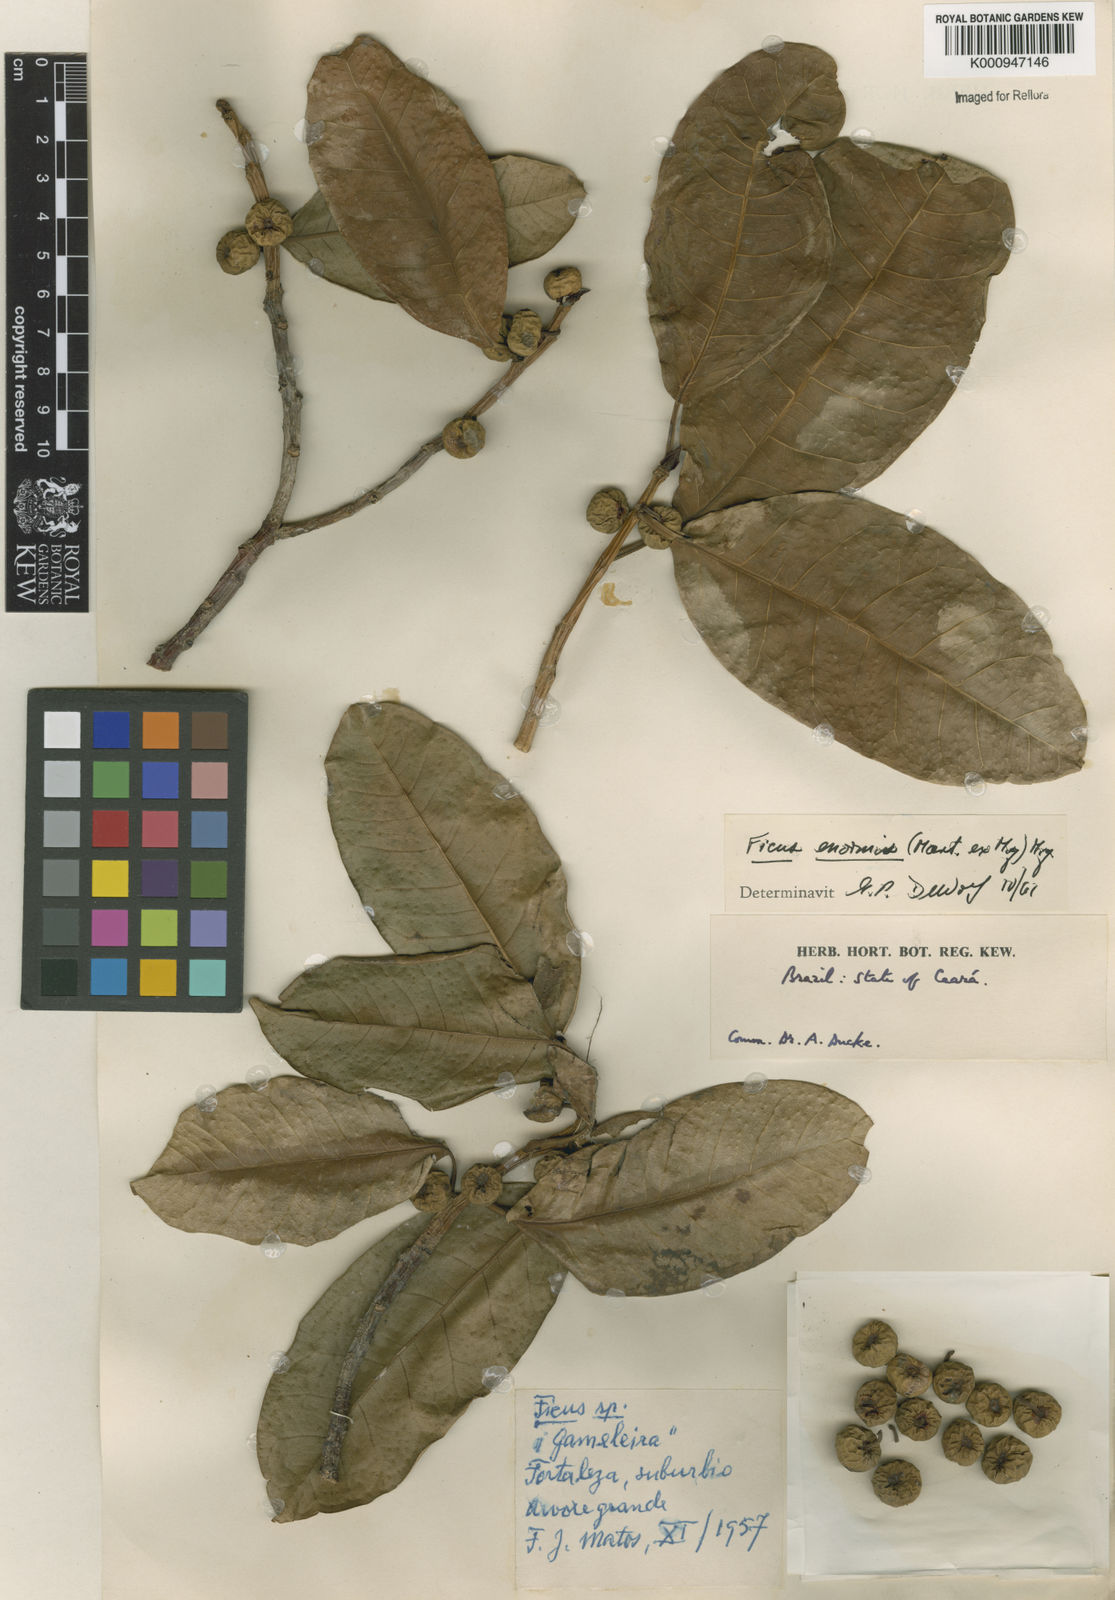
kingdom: Plantae
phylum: Tracheophyta
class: Magnoliopsida
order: Rosales
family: Moraceae
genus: Ficus
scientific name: Ficus luschnathiana
